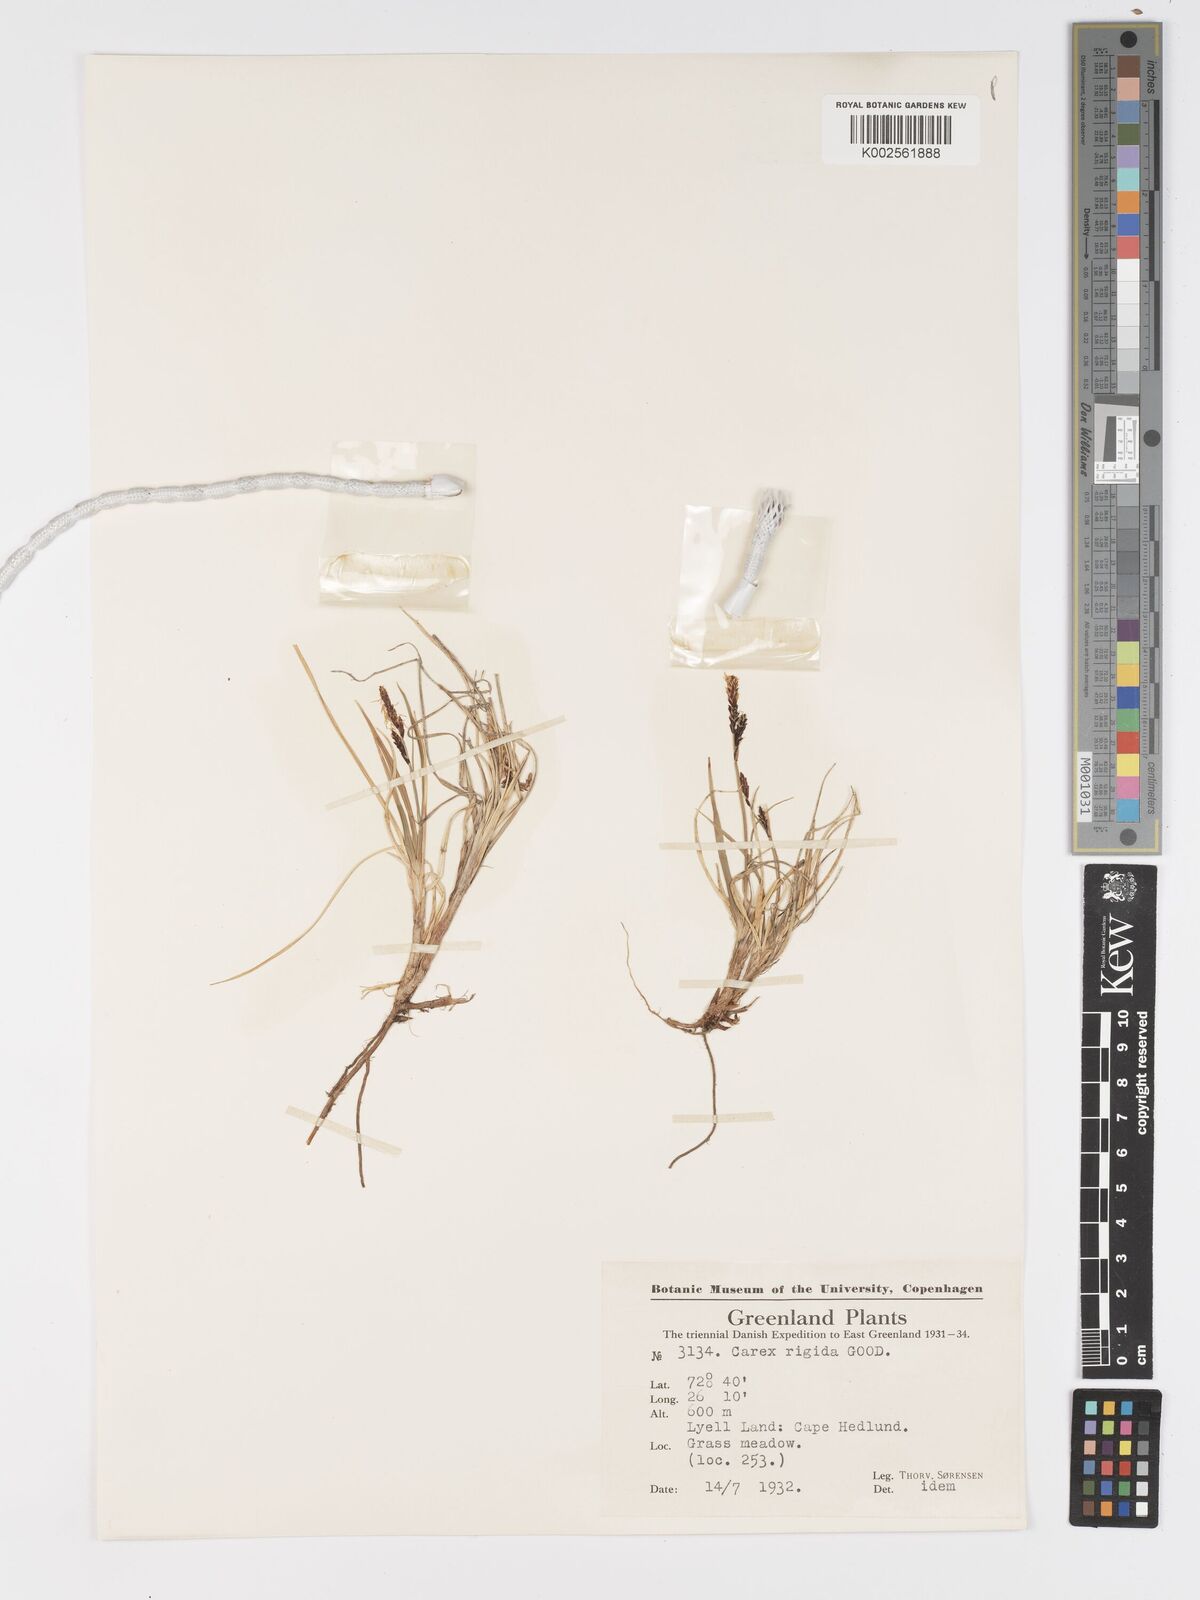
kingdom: Plantae
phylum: Tracheophyta
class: Liliopsida
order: Poales
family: Cyperaceae
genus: Carex
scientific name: Carex bigelowii
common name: Stiff sedge
